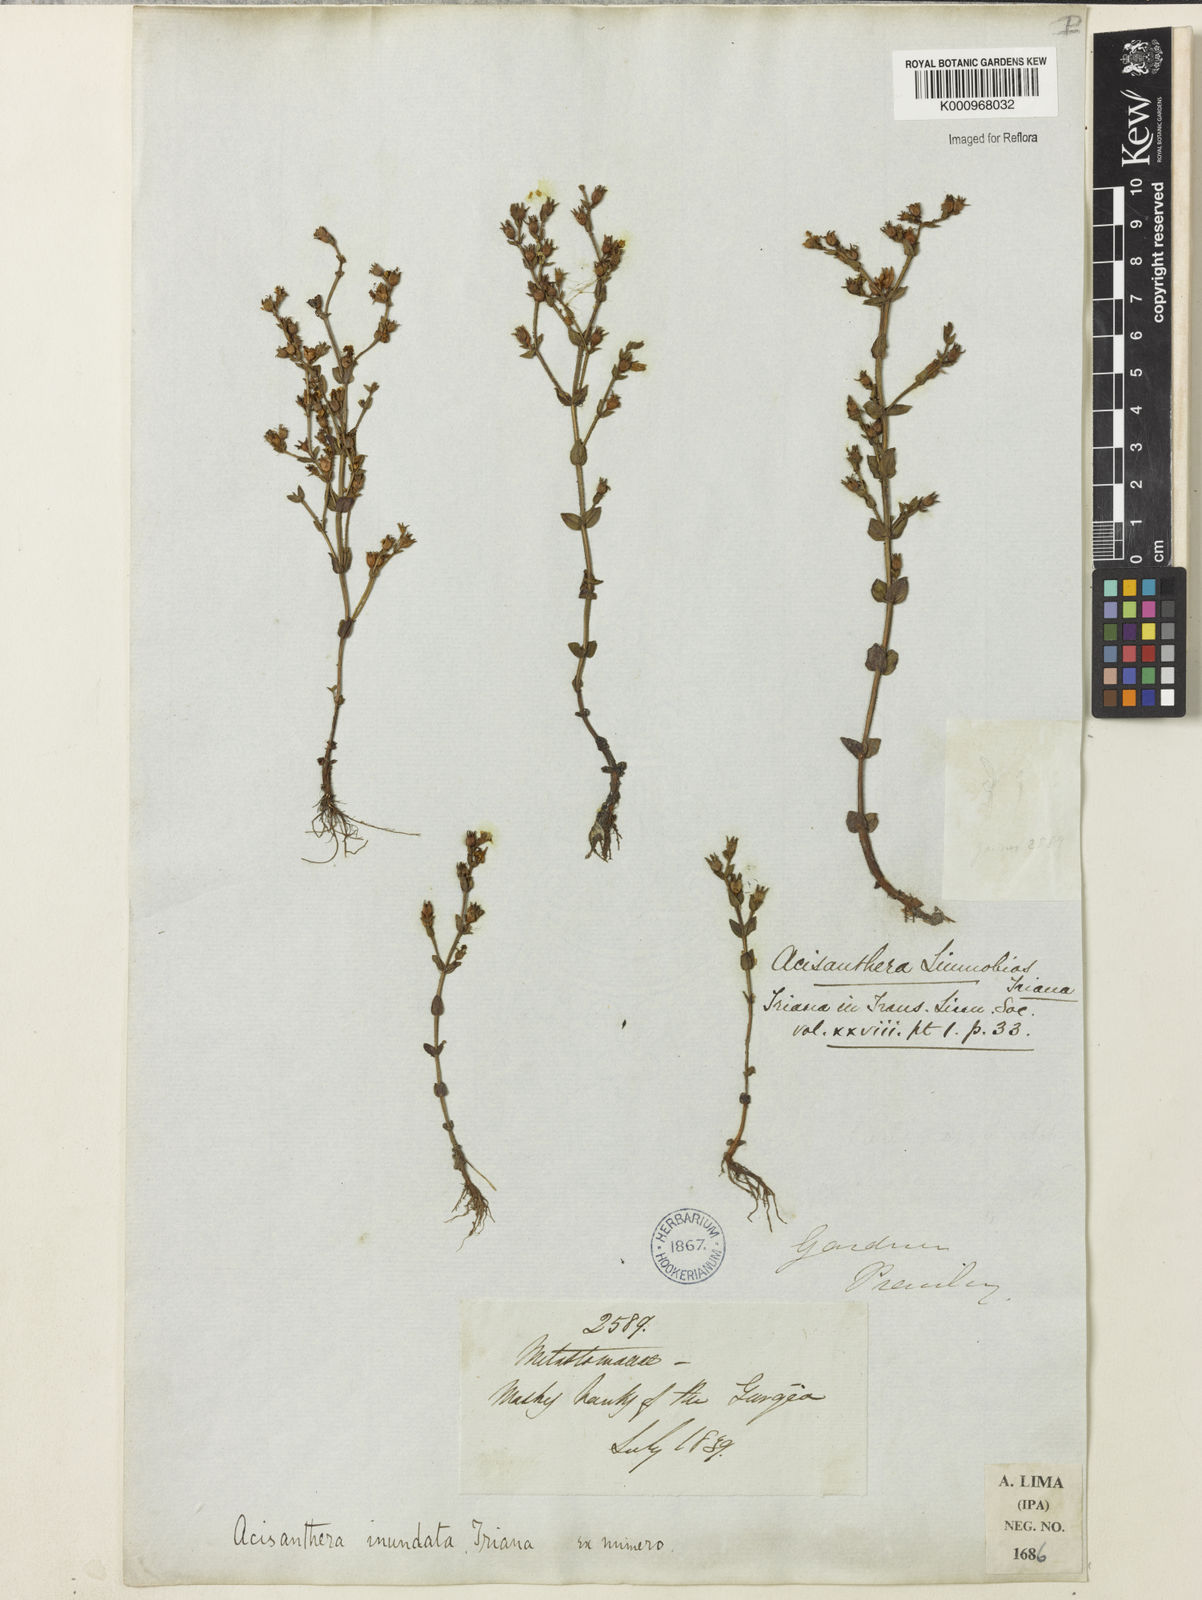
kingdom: Plantae
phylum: Tracheophyta
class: Magnoliopsida
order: Myrtales
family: Melastomataceae
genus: Noterophila
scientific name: Noterophila inundata
